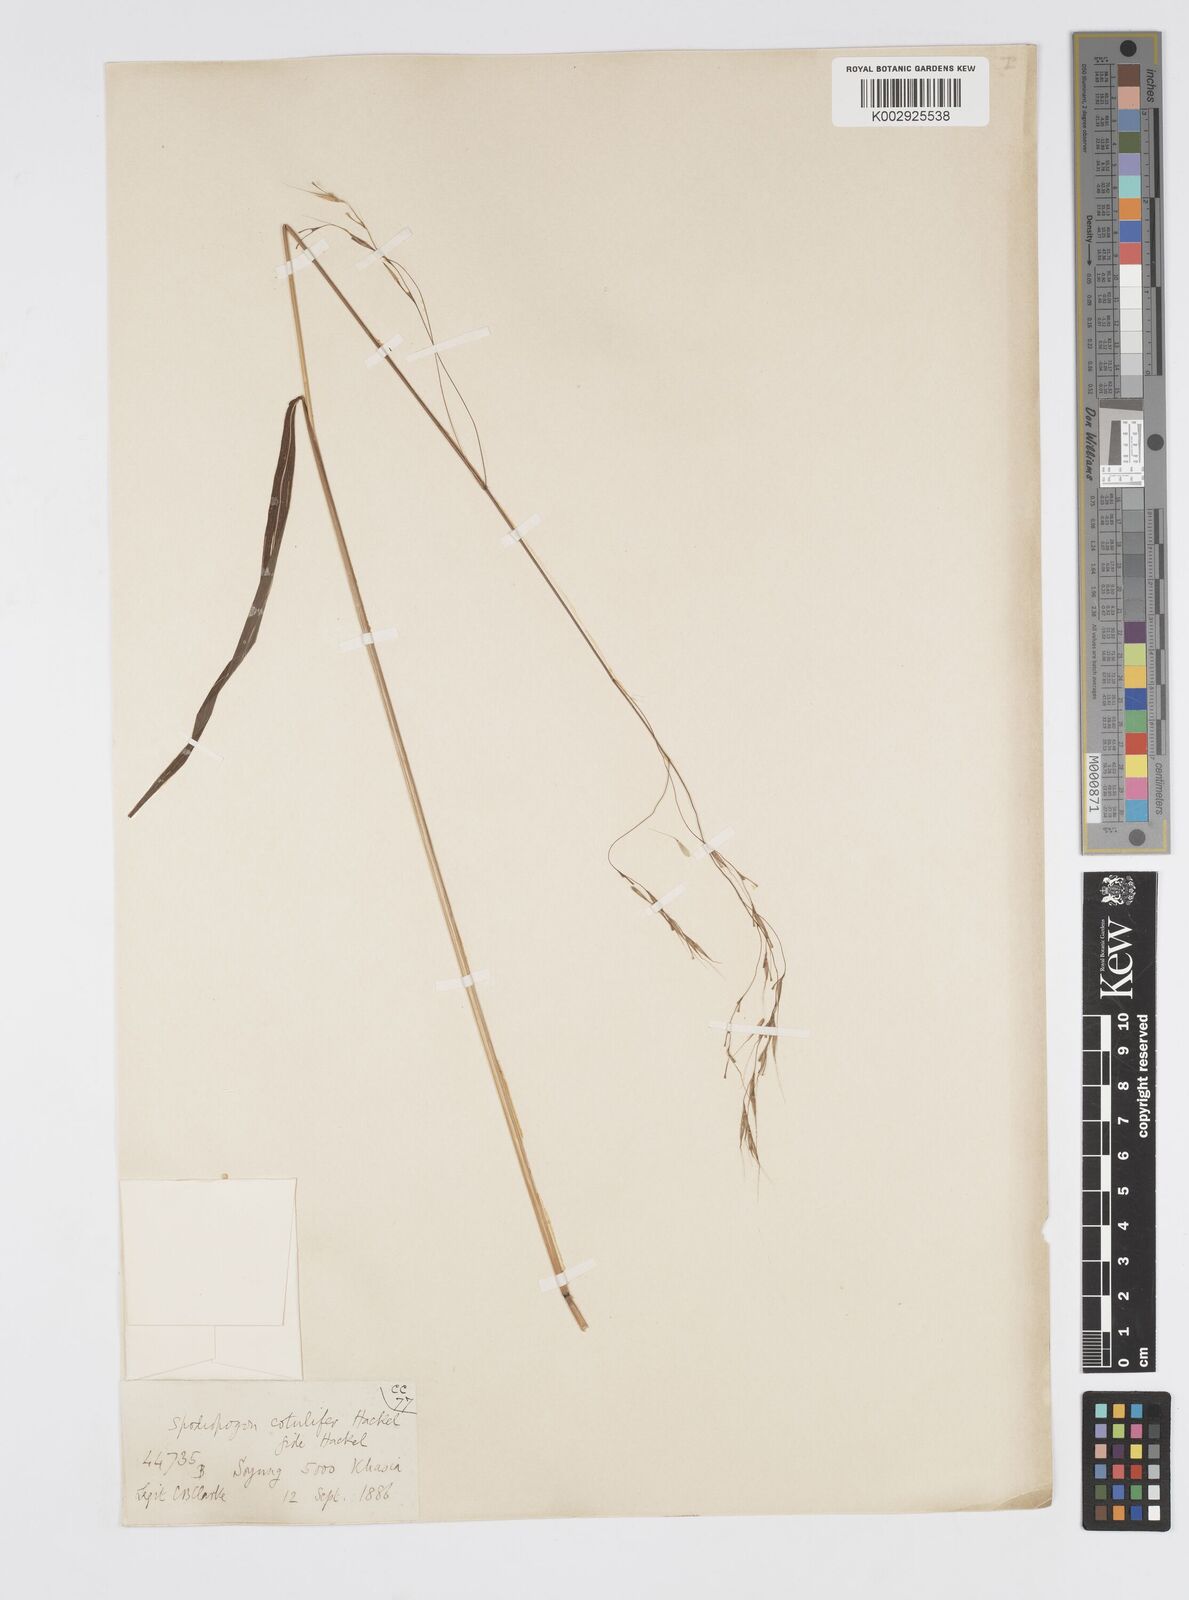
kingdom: Plantae
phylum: Tracheophyta
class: Liliopsida
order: Poales
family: Poaceae
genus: Spodiopogon
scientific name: Spodiopogon cotulifer
